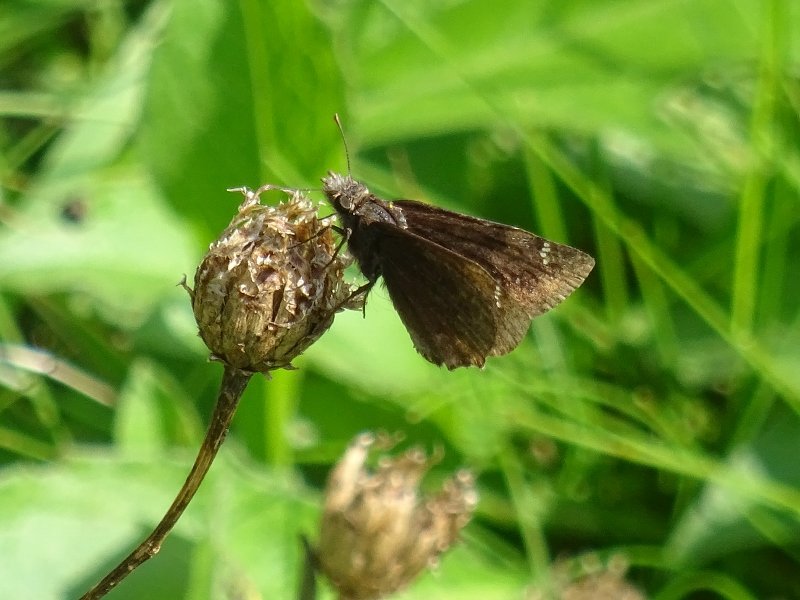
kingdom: Animalia
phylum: Arthropoda
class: Insecta
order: Lepidoptera
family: Hesperiidae
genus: Gesta
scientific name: Gesta
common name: Wild Indigo Duskywing
